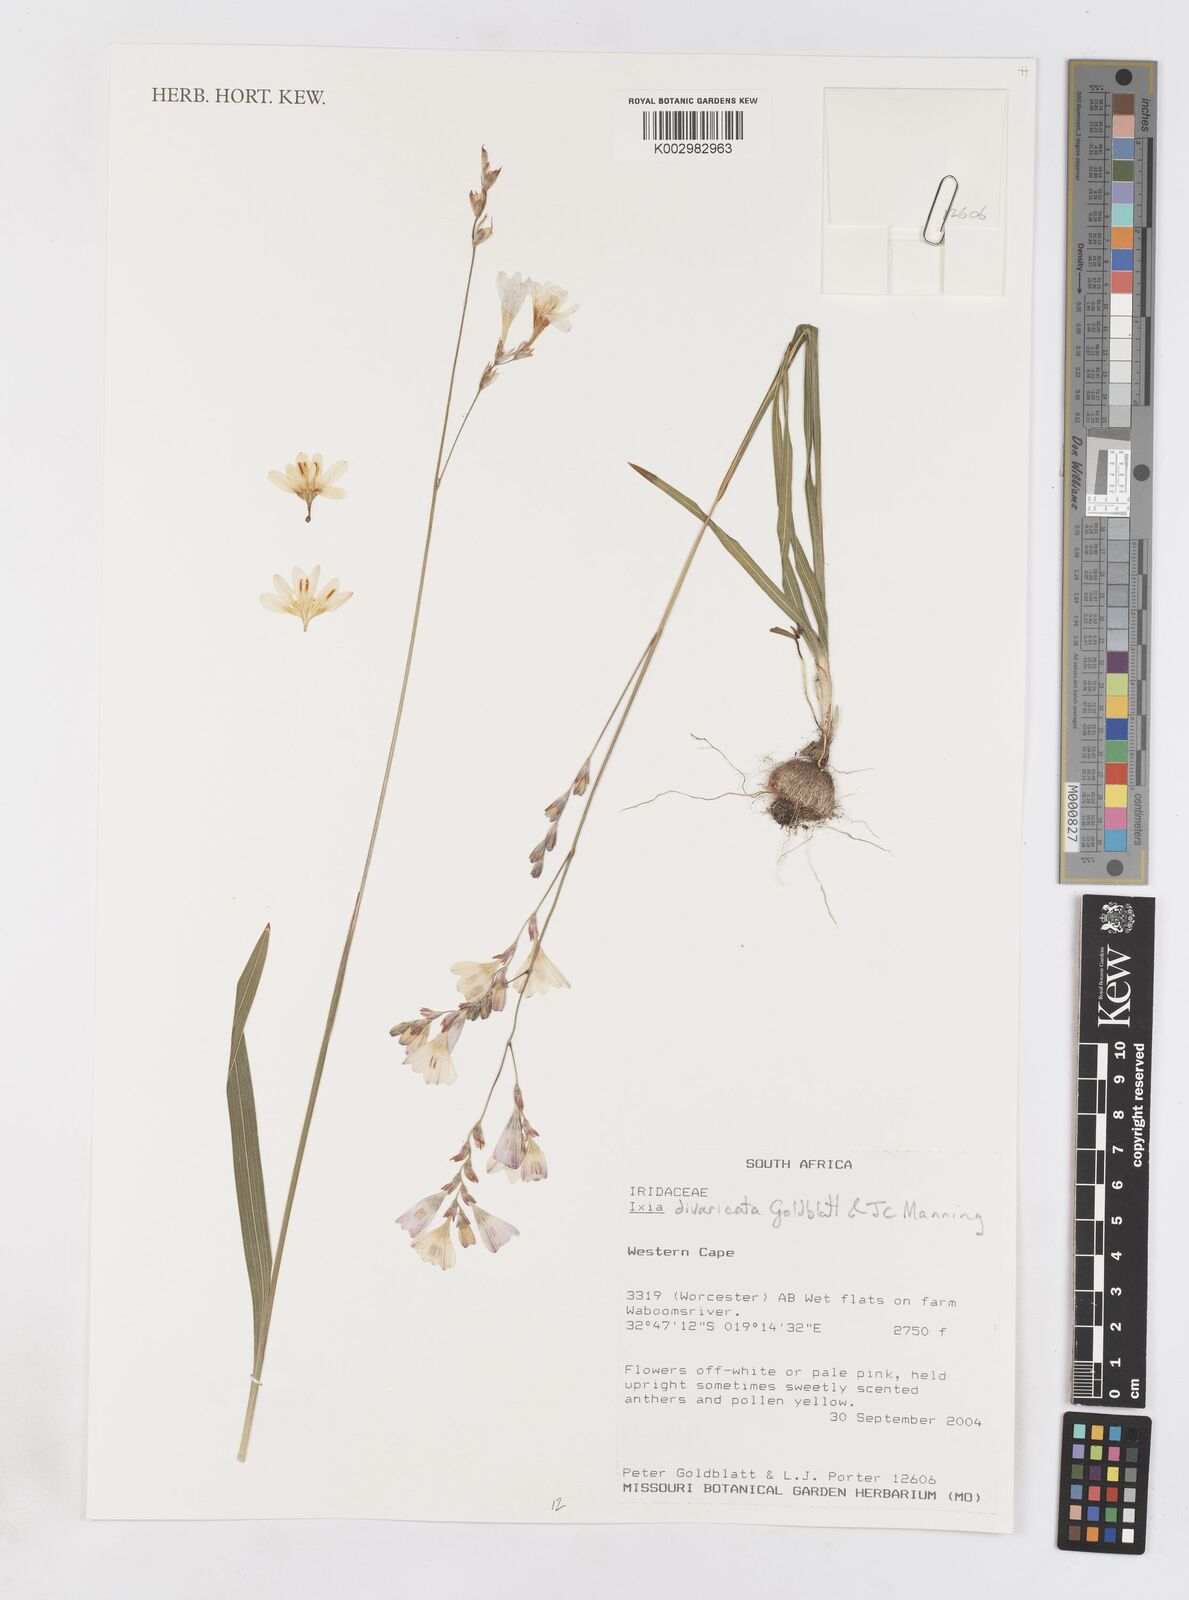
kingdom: Plantae
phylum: Tracheophyta
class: Liliopsida
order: Asparagales
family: Iridaceae
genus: Ixia
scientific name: Ixia divaricata
